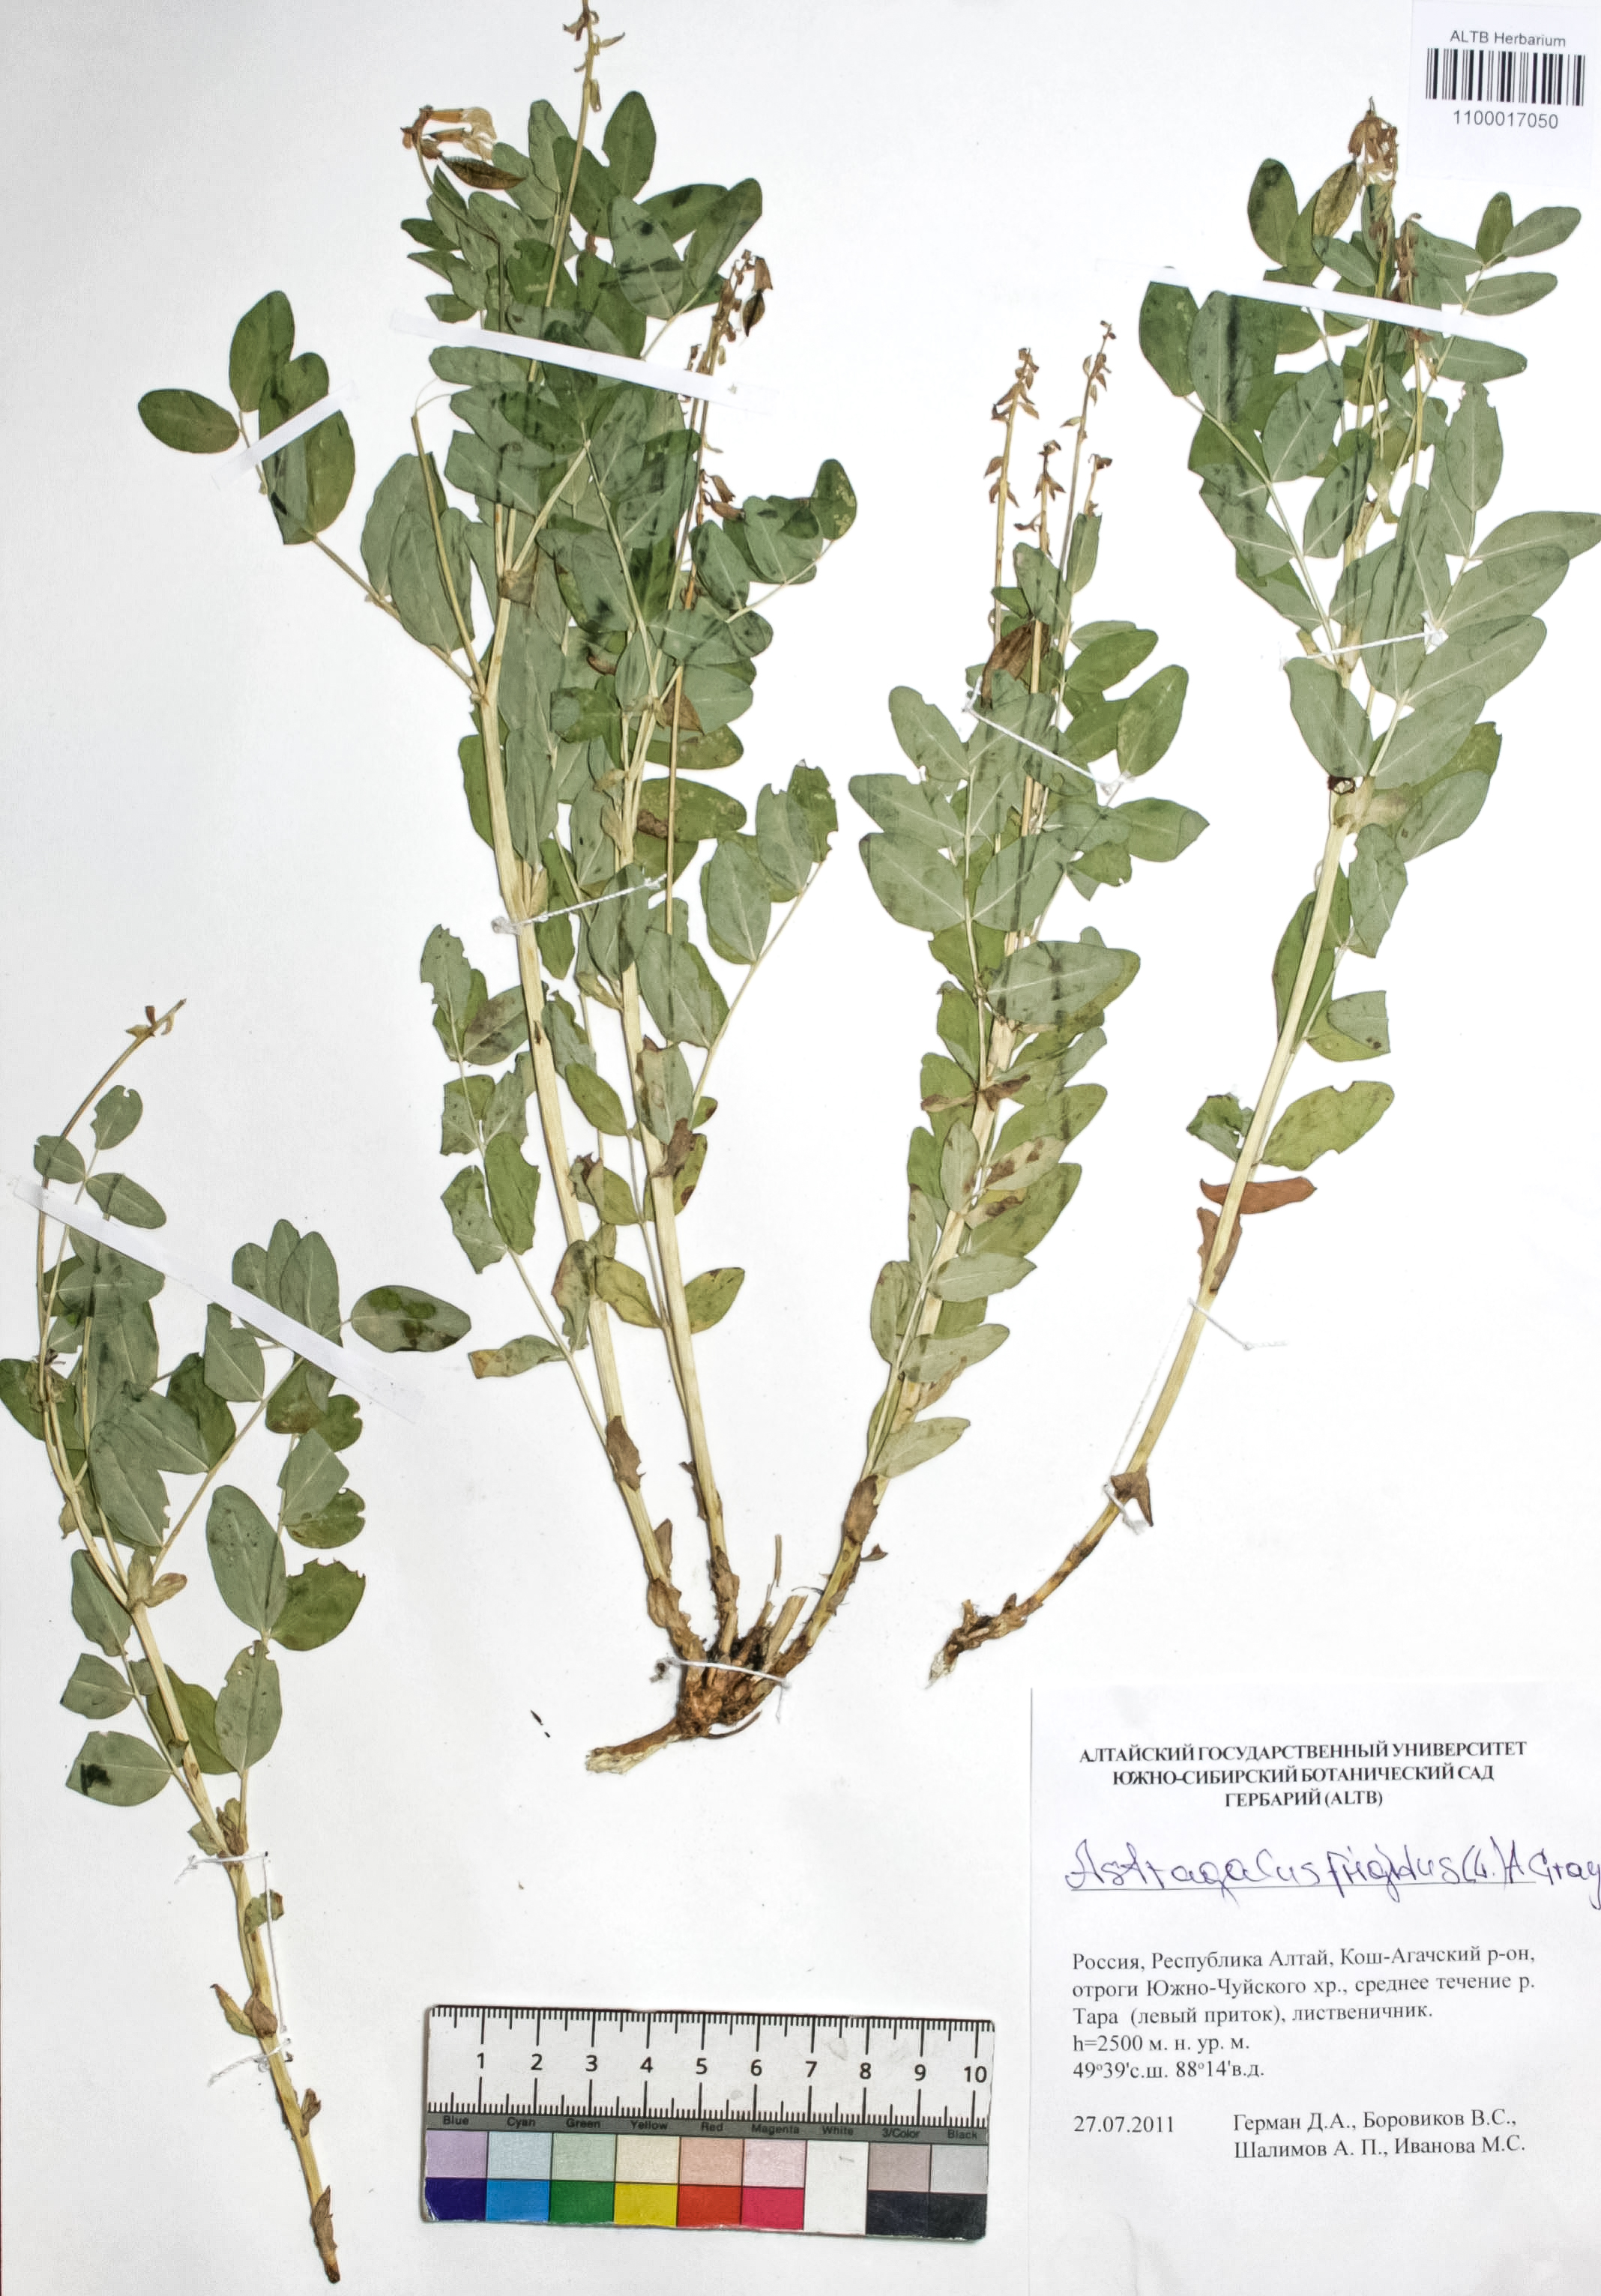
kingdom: Plantae
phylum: Tracheophyta
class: Magnoliopsida
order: Fabales
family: Fabaceae
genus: Astragalus
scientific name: Astragalus frigidus
